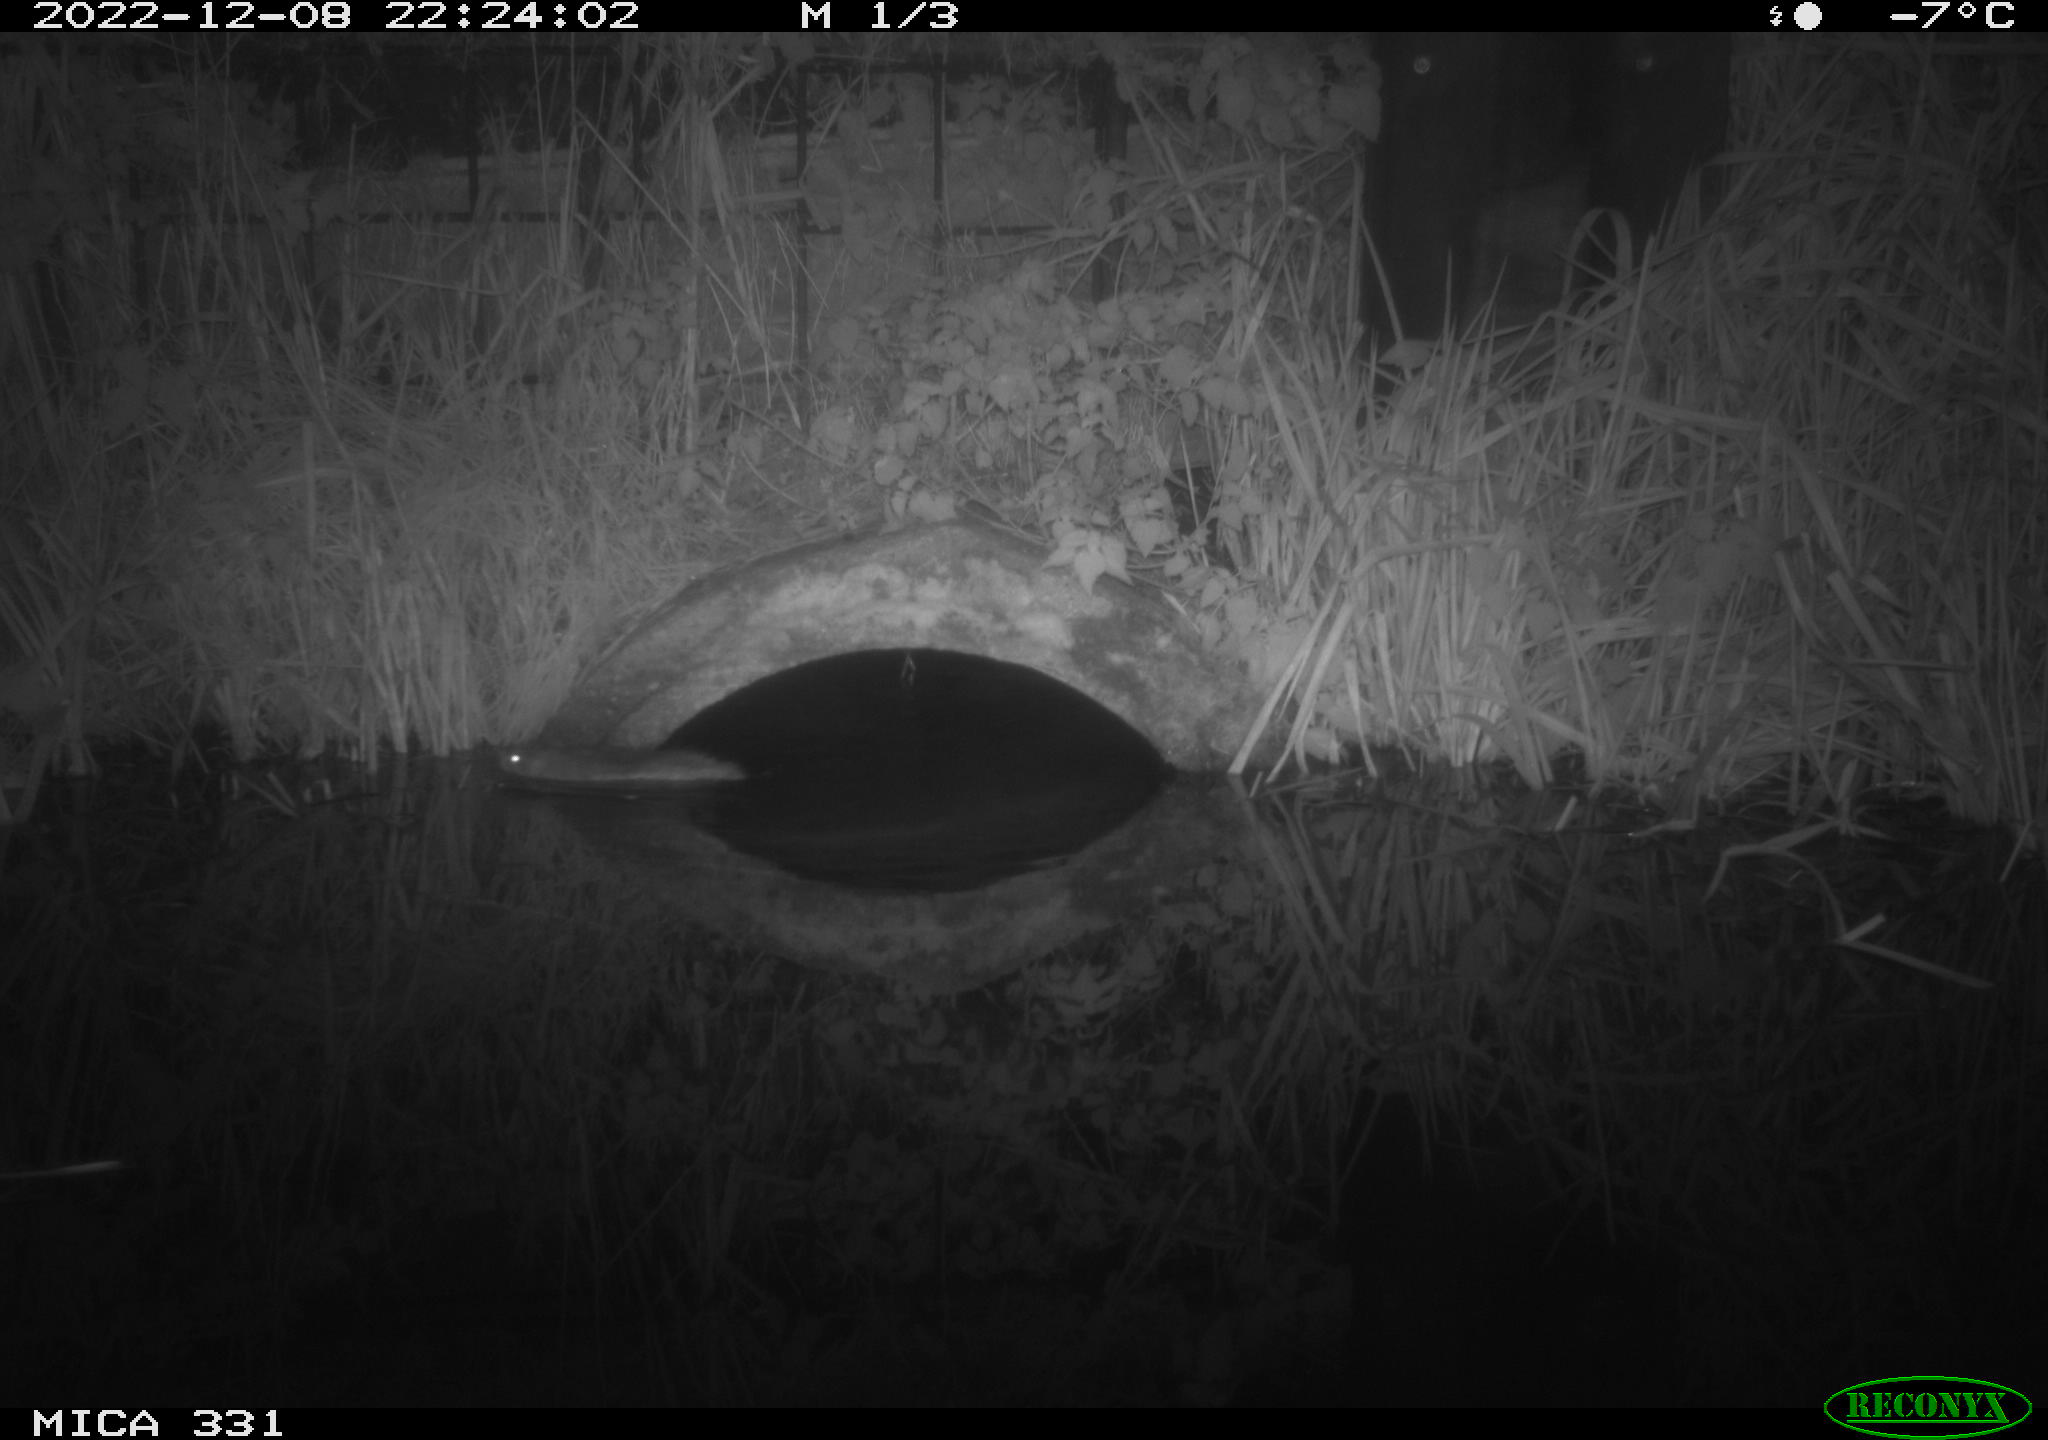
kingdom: Animalia
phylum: Chordata
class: Mammalia
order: Rodentia
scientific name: Rodentia
